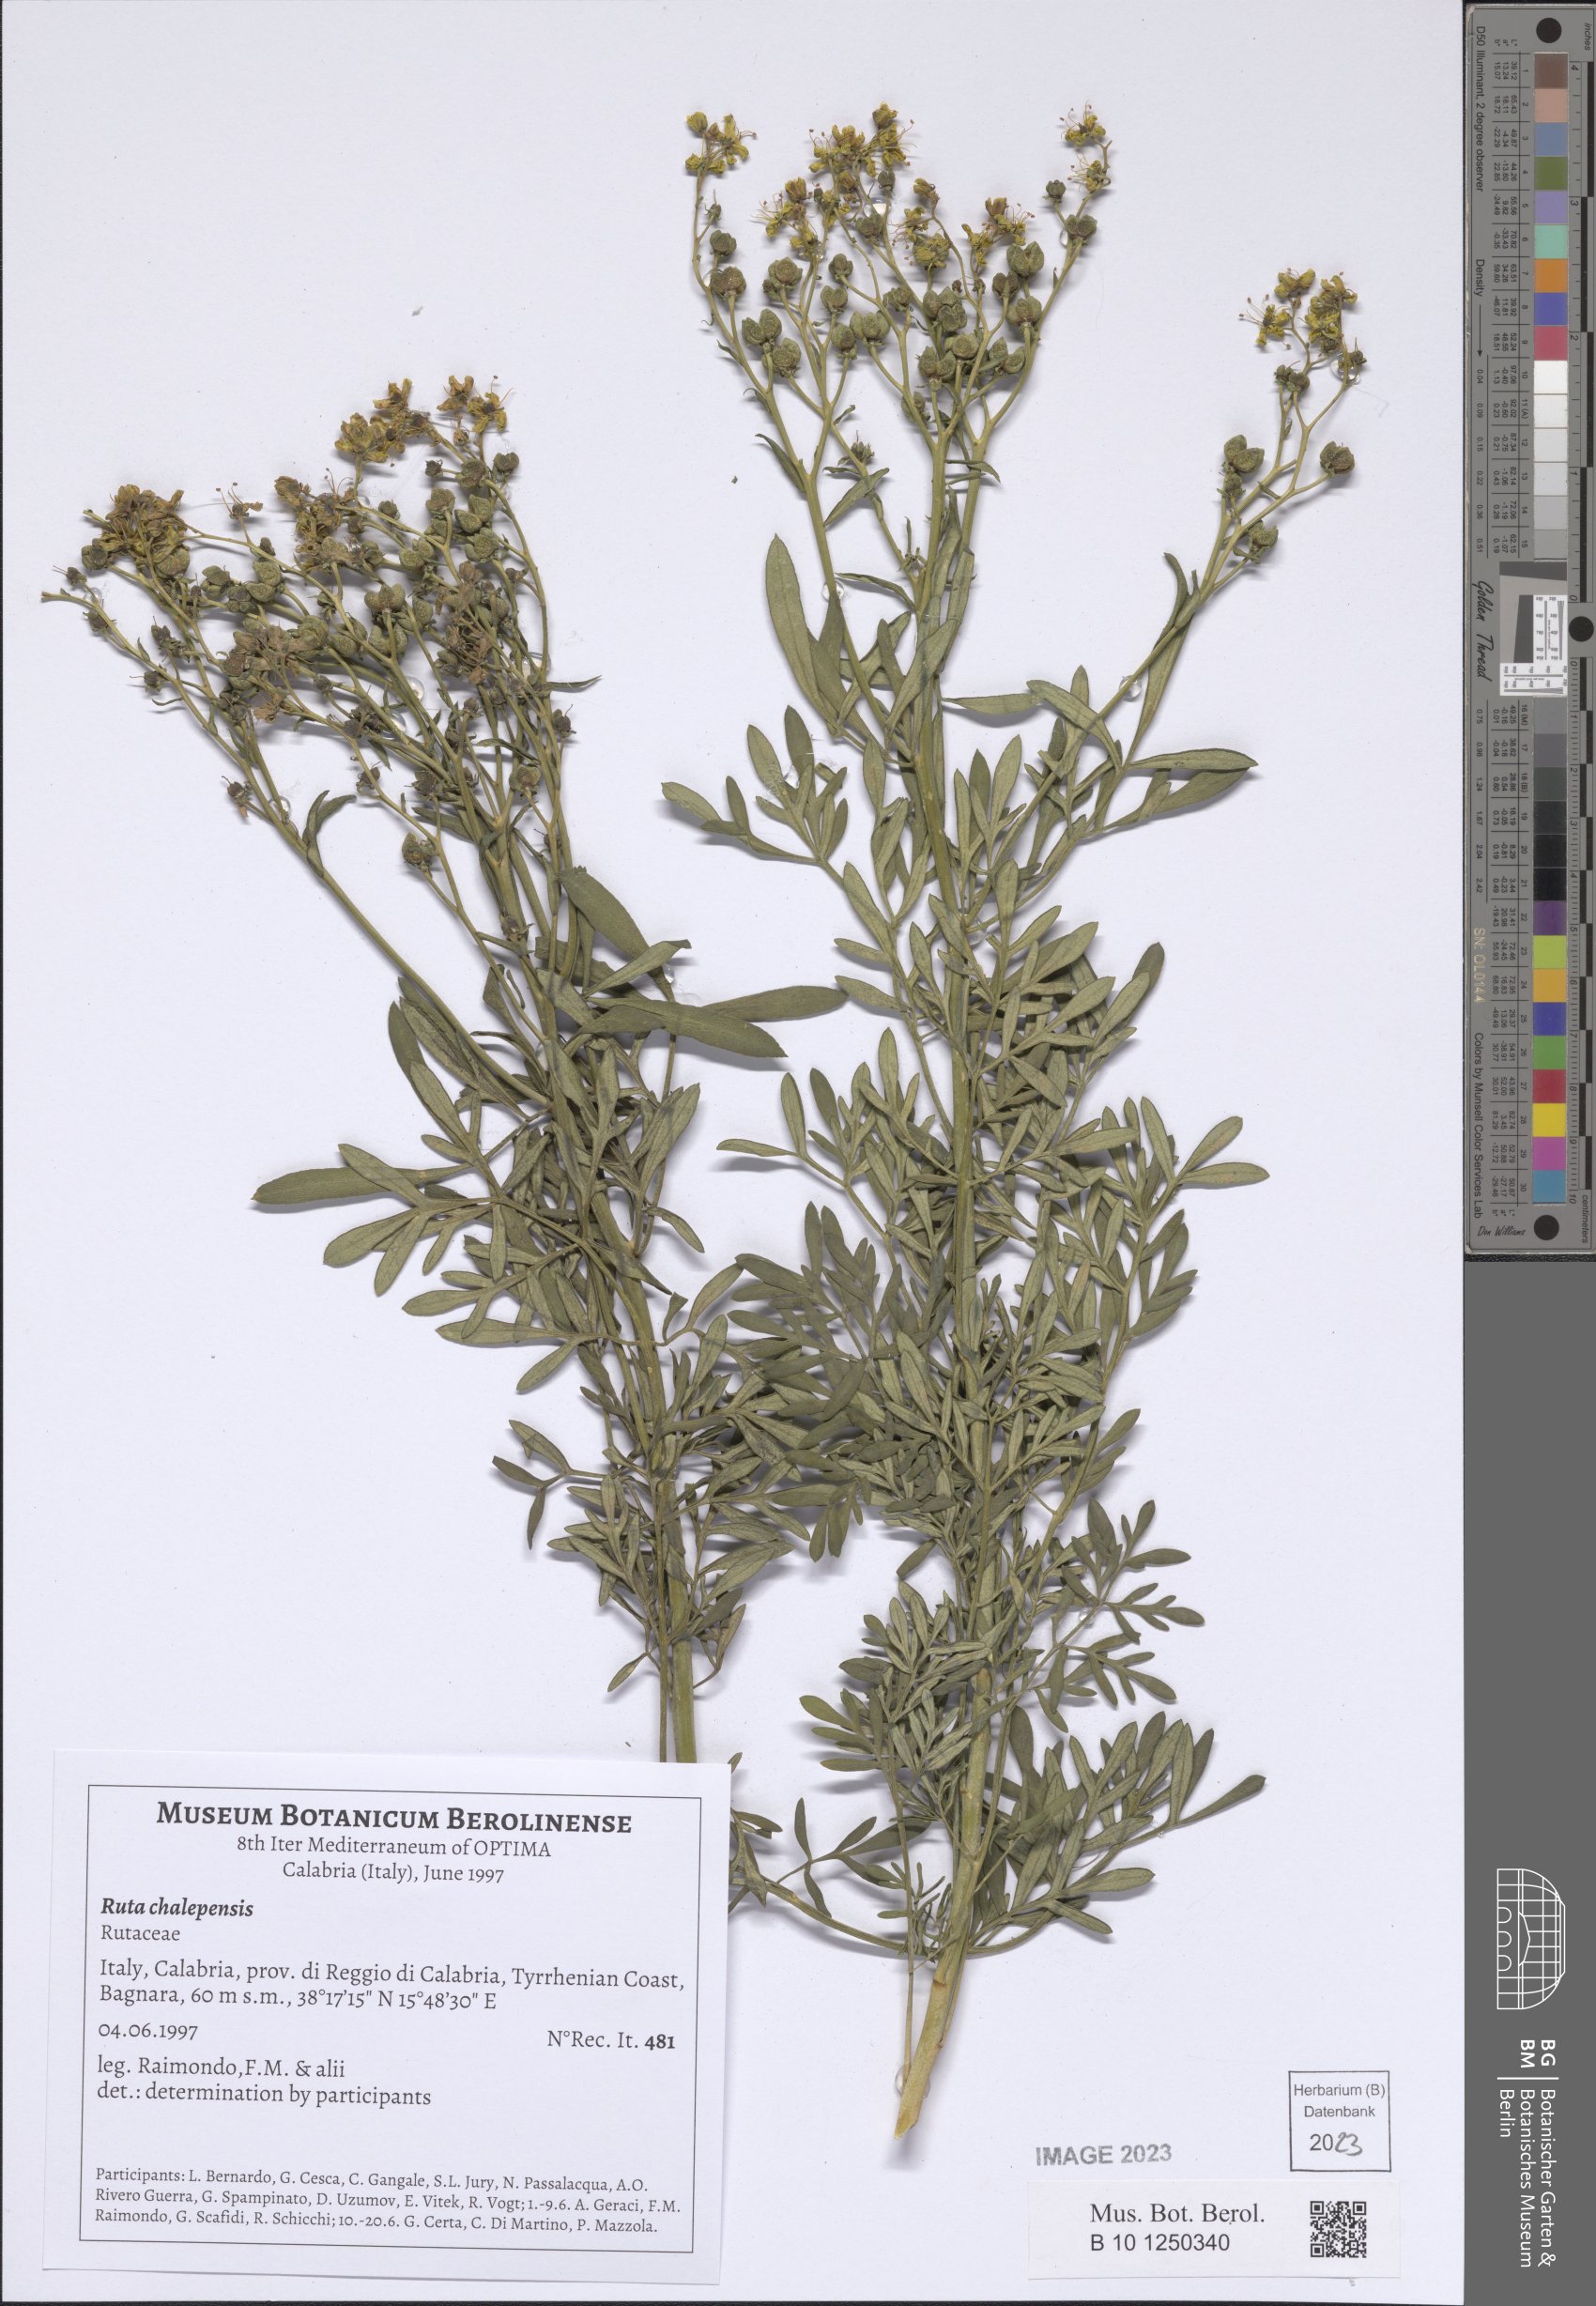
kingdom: Plantae
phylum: Tracheophyta
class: Magnoliopsida
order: Sapindales
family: Rutaceae
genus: Ruta
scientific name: Ruta chalepensis
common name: Fringed rue
